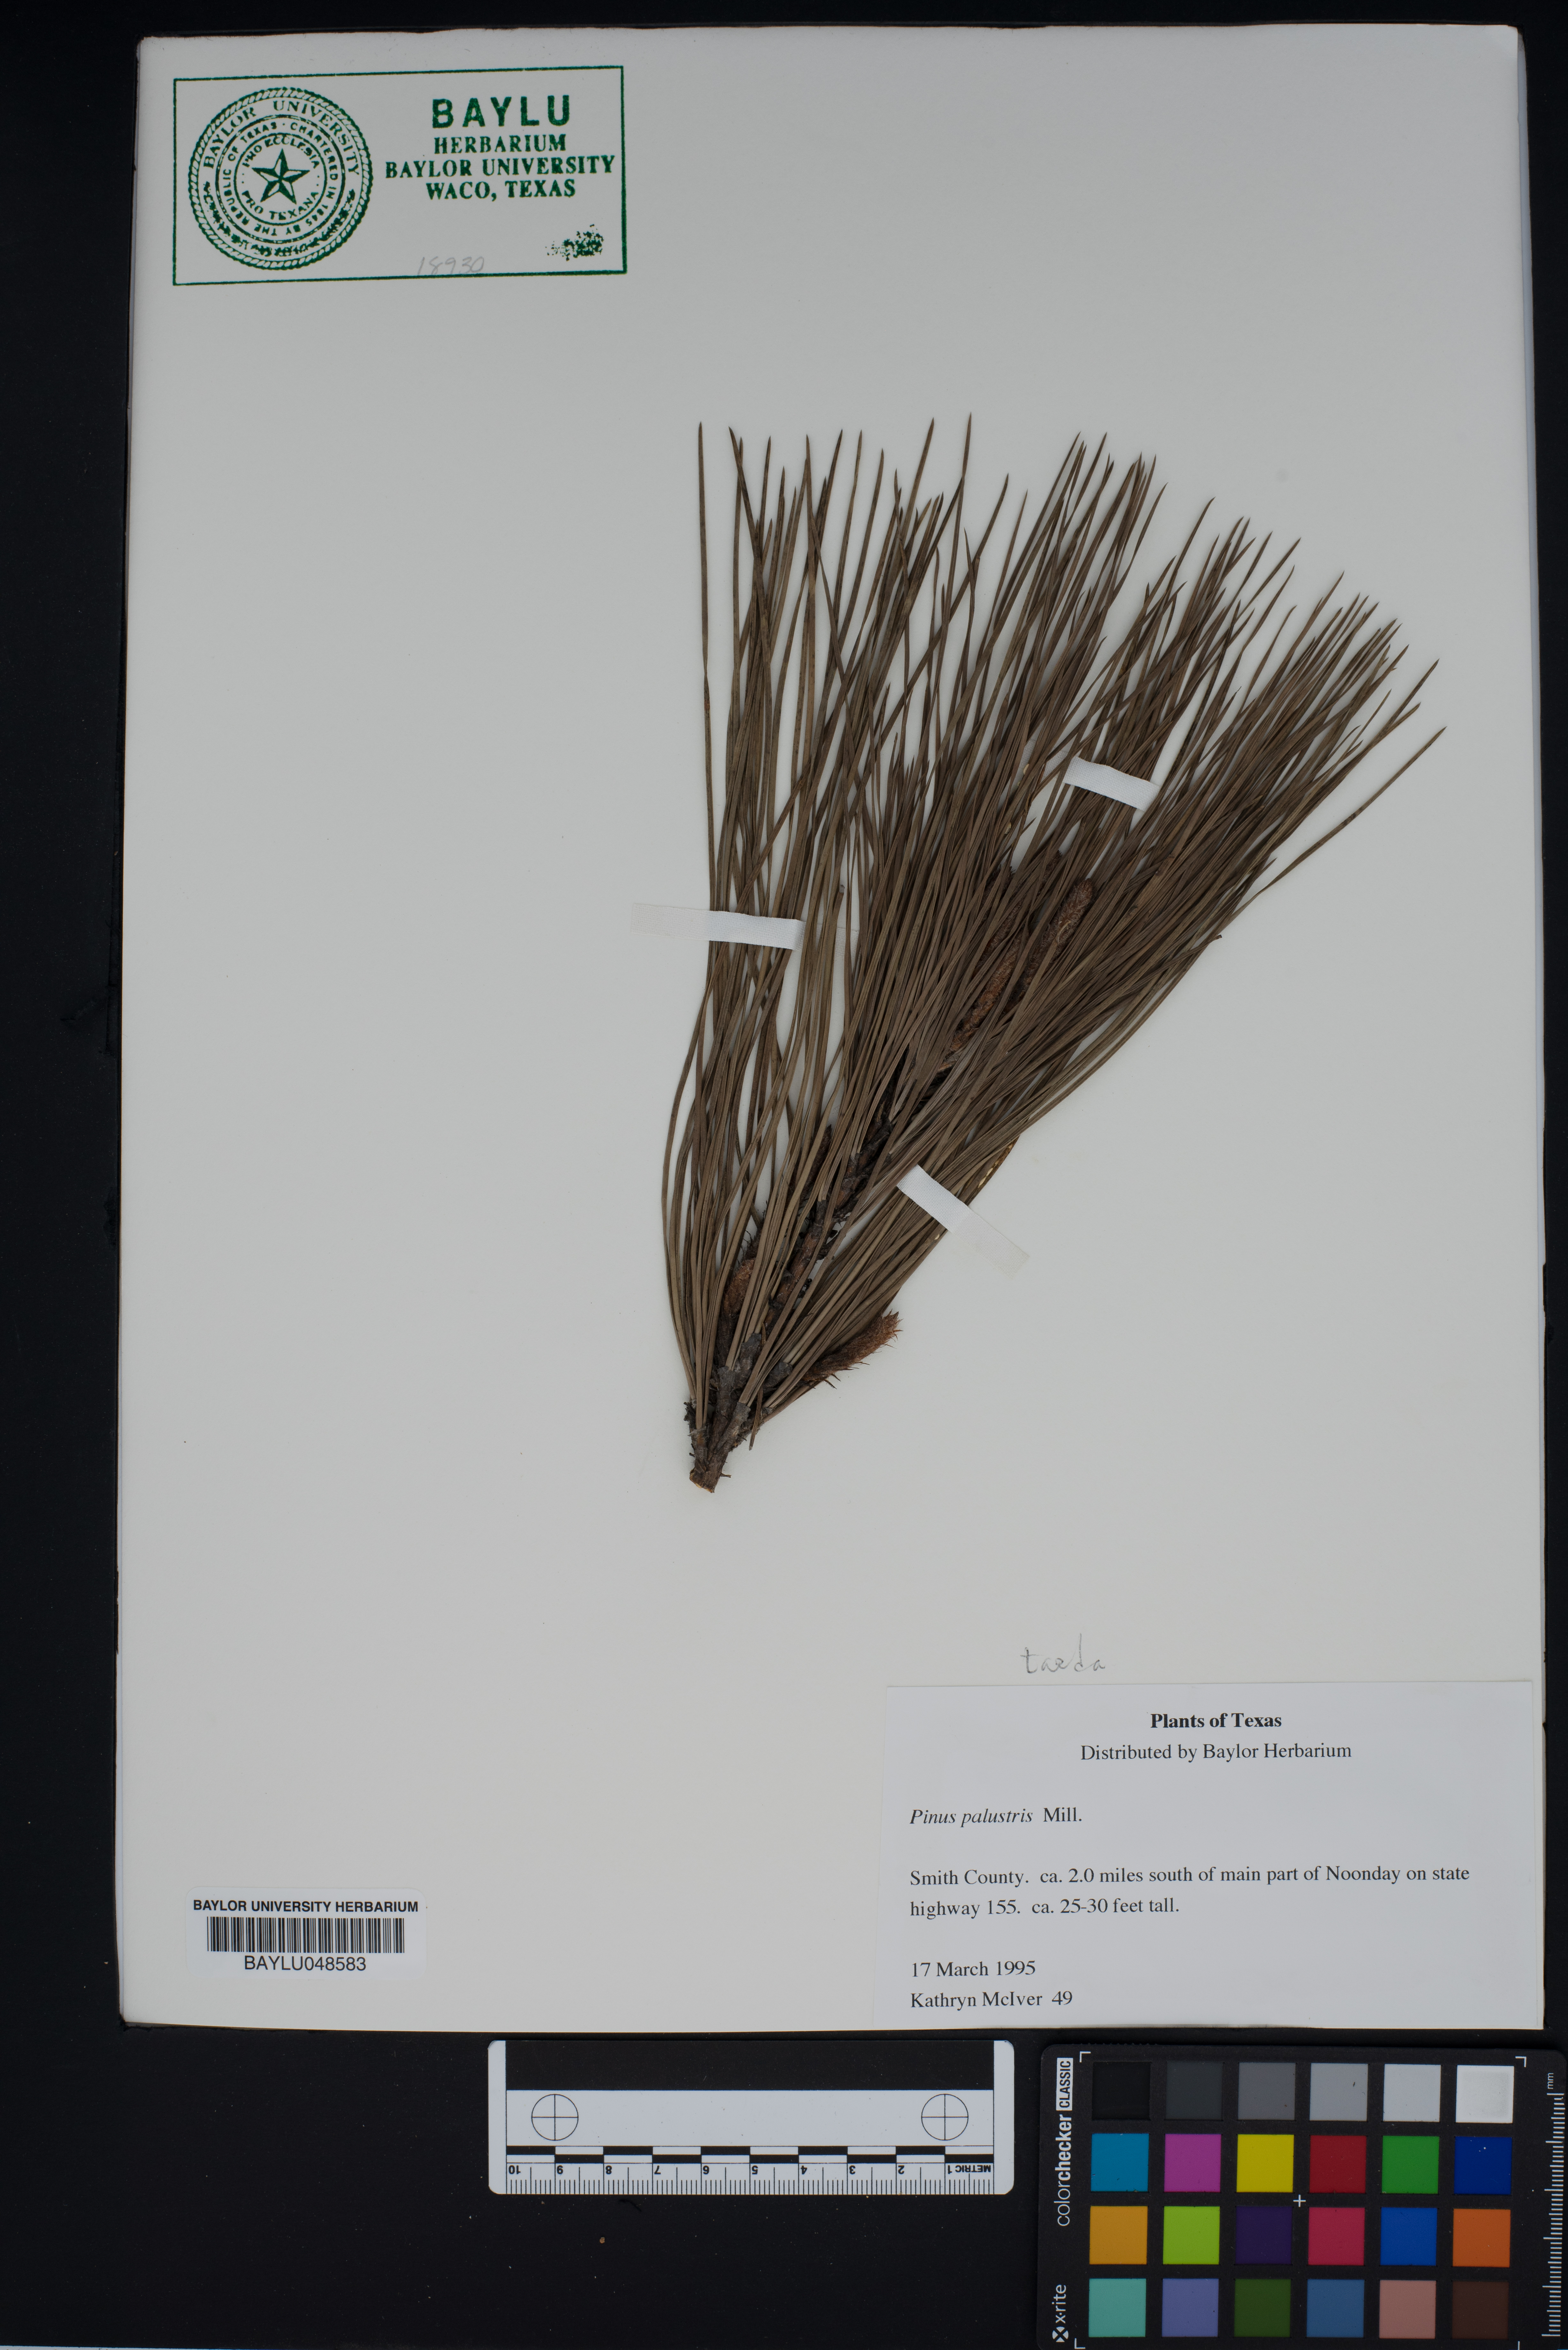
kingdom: Plantae
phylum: Tracheophyta
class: Pinopsida
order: Pinales
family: Pinaceae
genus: Pinus
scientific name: Pinus palustris
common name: Longleaf pine
